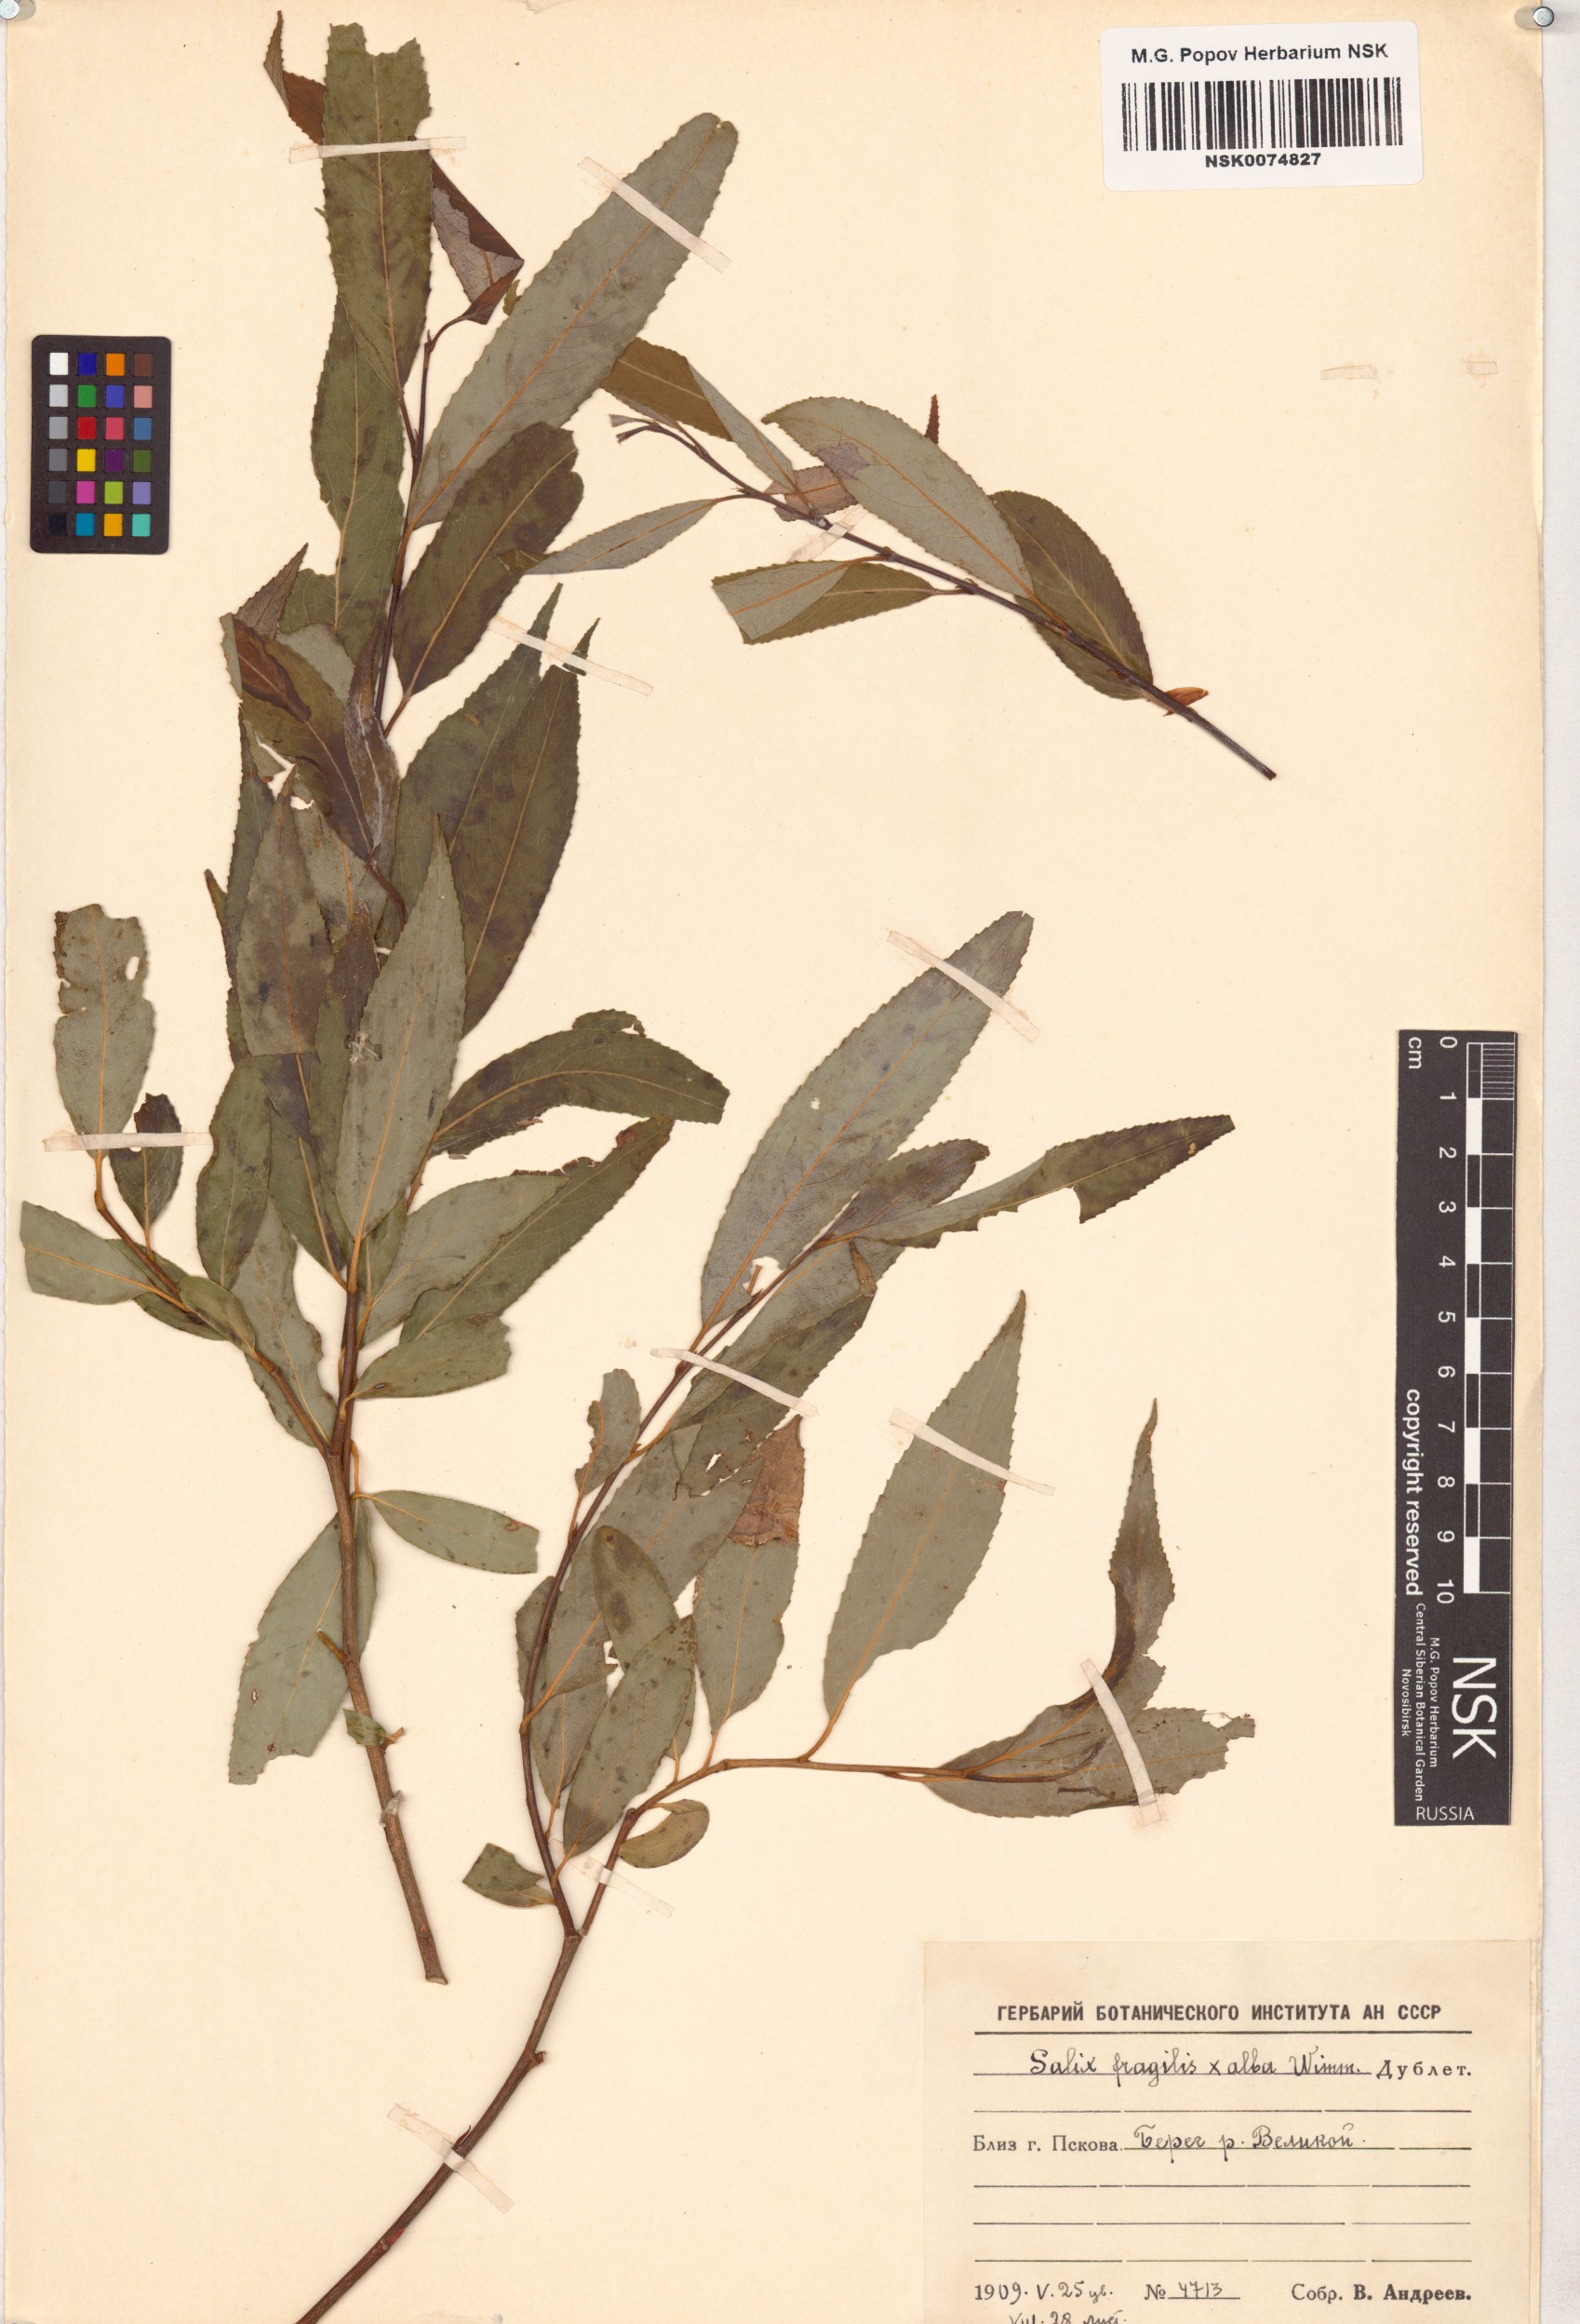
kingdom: Plantae
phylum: Tracheophyta
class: Magnoliopsida
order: Malpighiales
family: Salicaceae
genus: Salix
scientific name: Salix
